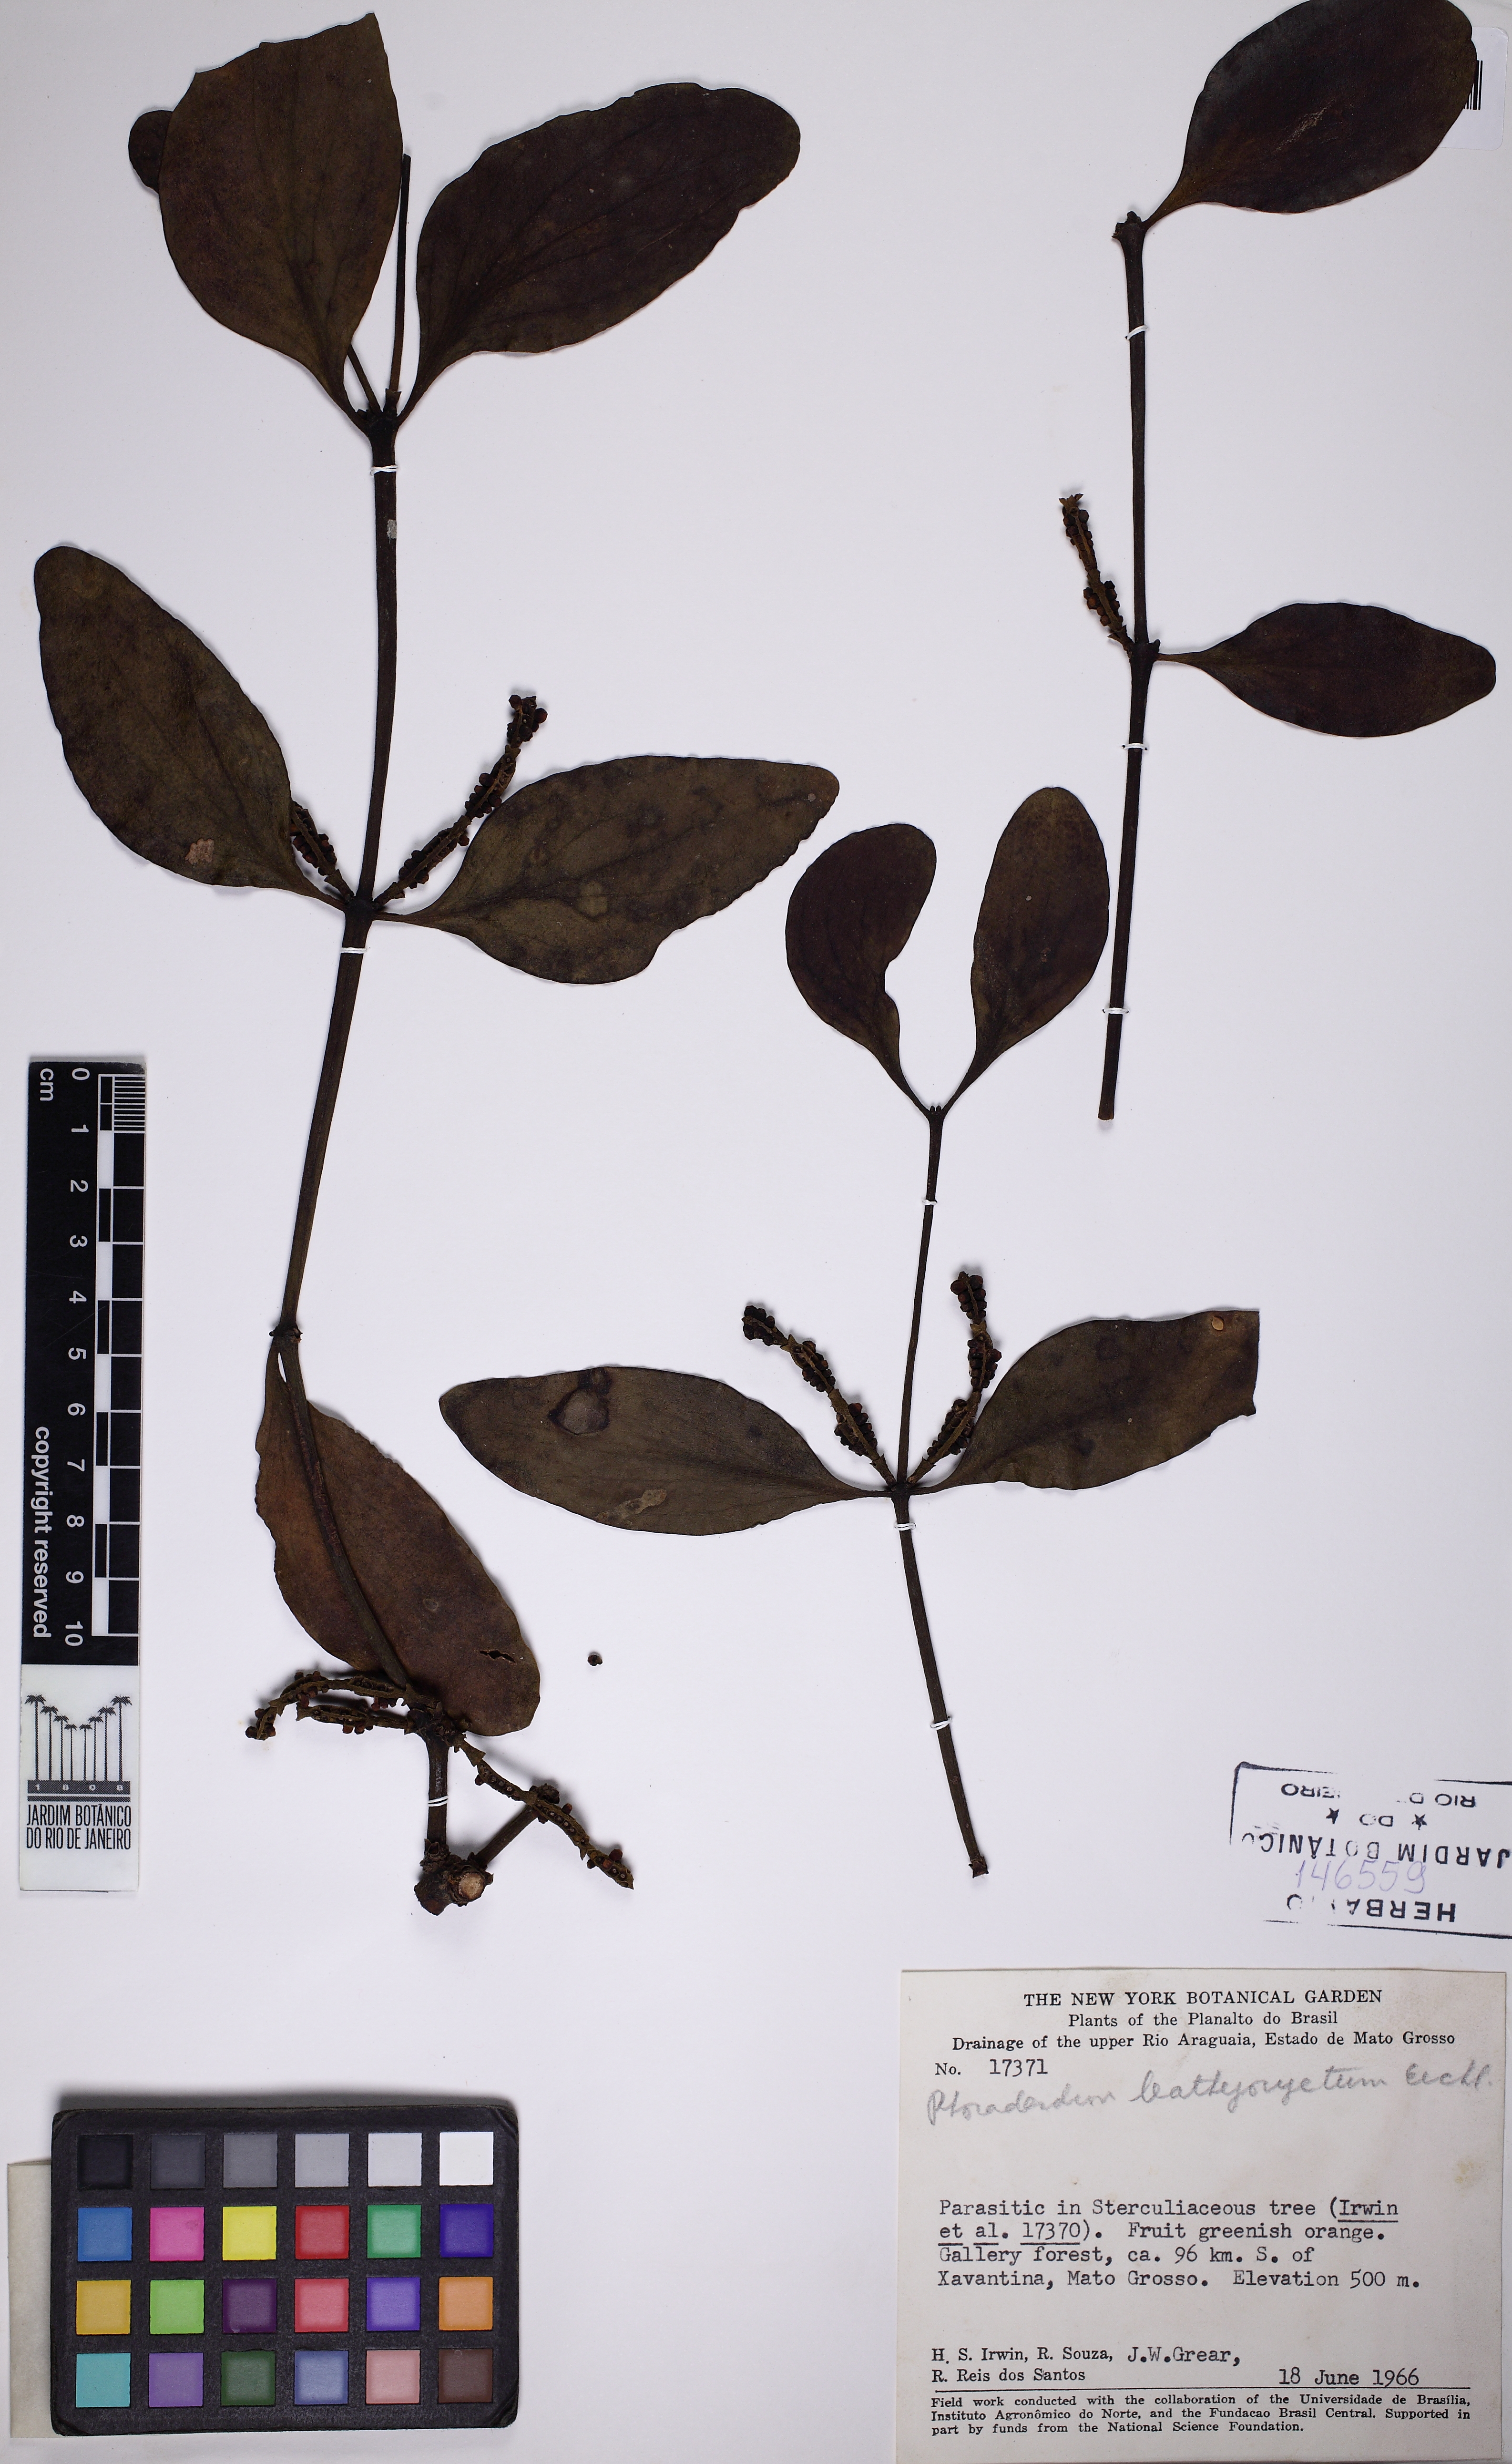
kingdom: Plantae
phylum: Tracheophyta
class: Magnoliopsida
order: Santalales
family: Viscaceae
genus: Phoradendron
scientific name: Phoradendron
